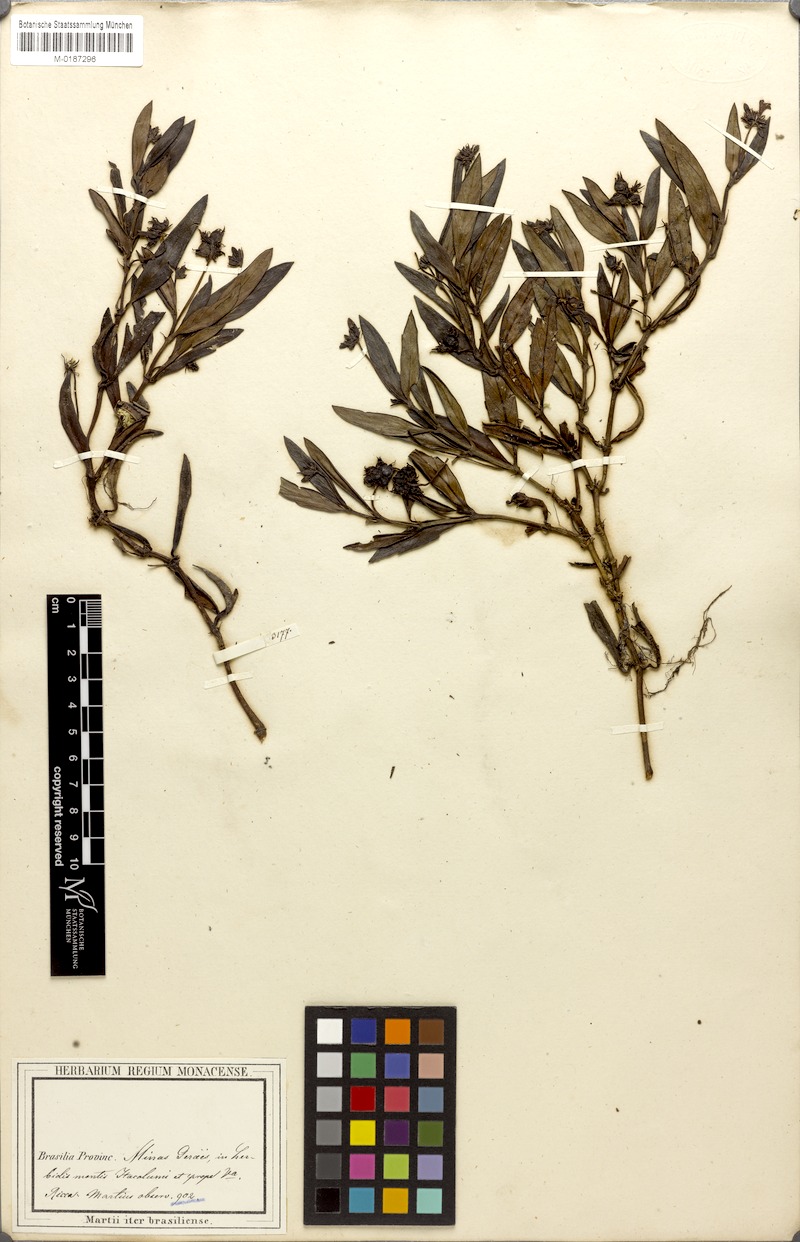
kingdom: Plantae
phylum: Tracheophyta
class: Magnoliopsida
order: Gentianales
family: Rubiaceae
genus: Coccocypselum
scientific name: Coccocypselum pedunculare
